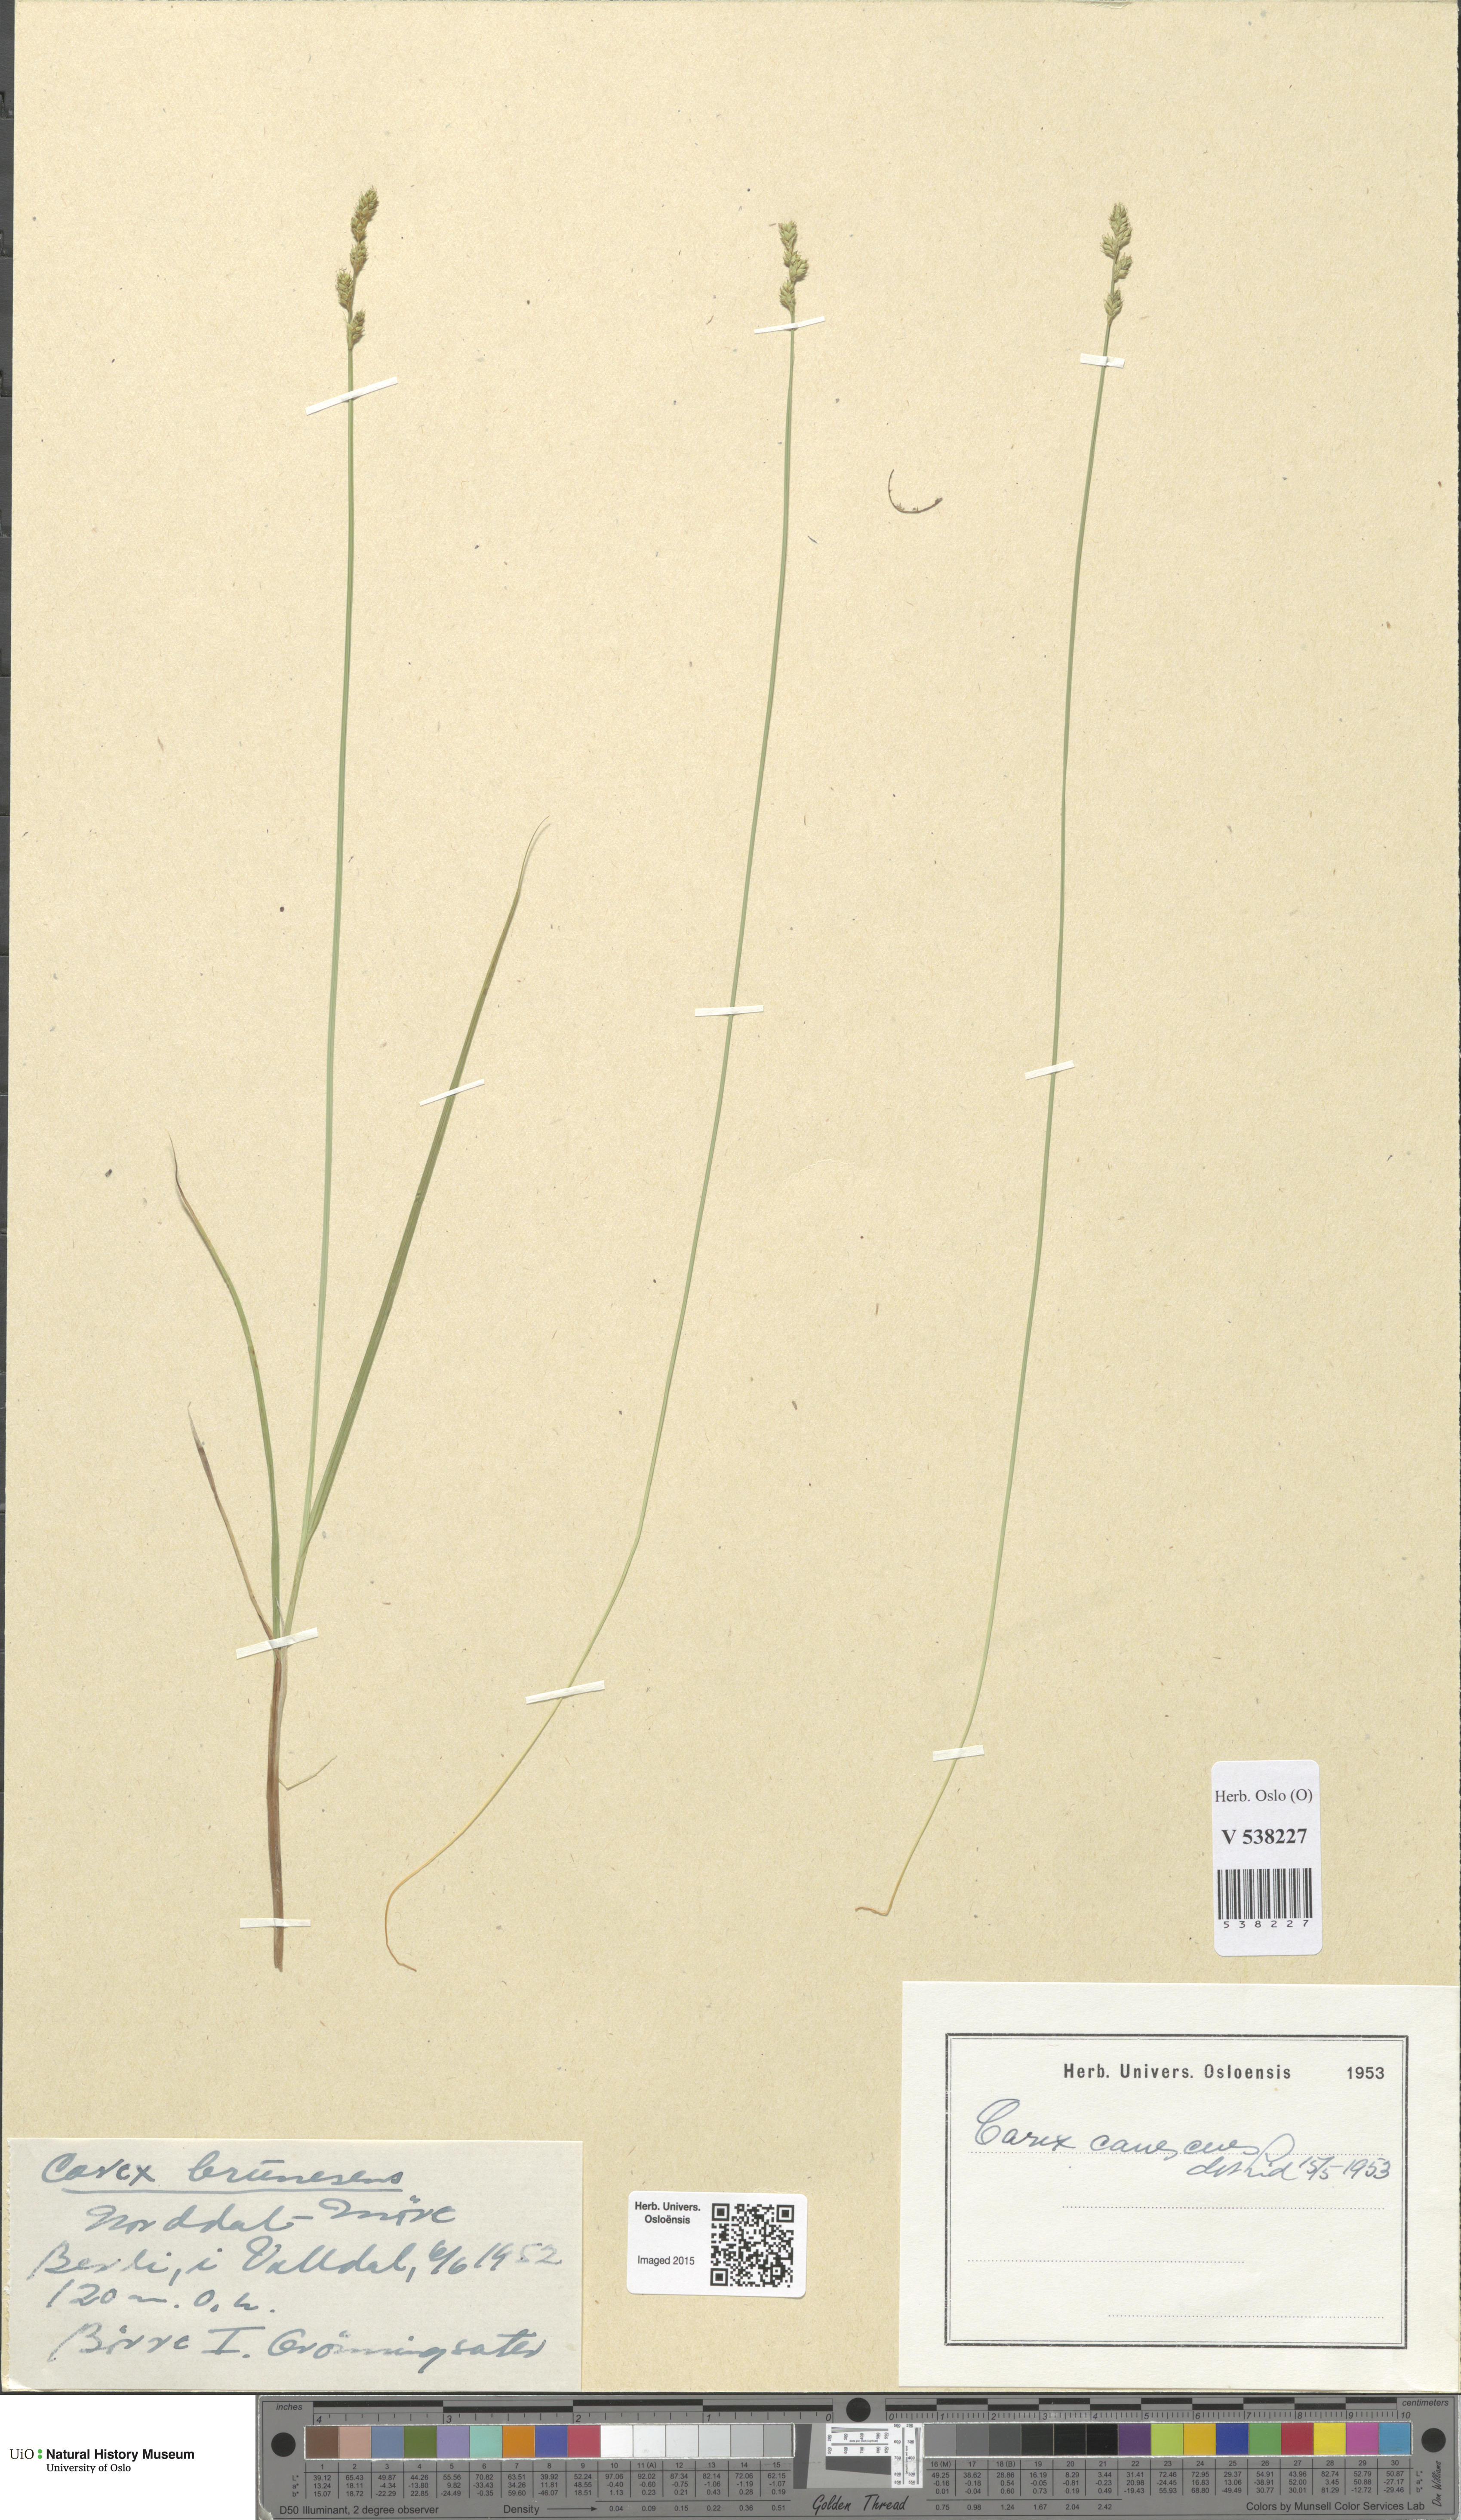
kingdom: Plantae
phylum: Tracheophyta
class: Liliopsida
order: Poales
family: Cyperaceae
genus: Carex
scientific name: Carex canescens
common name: White sedge
